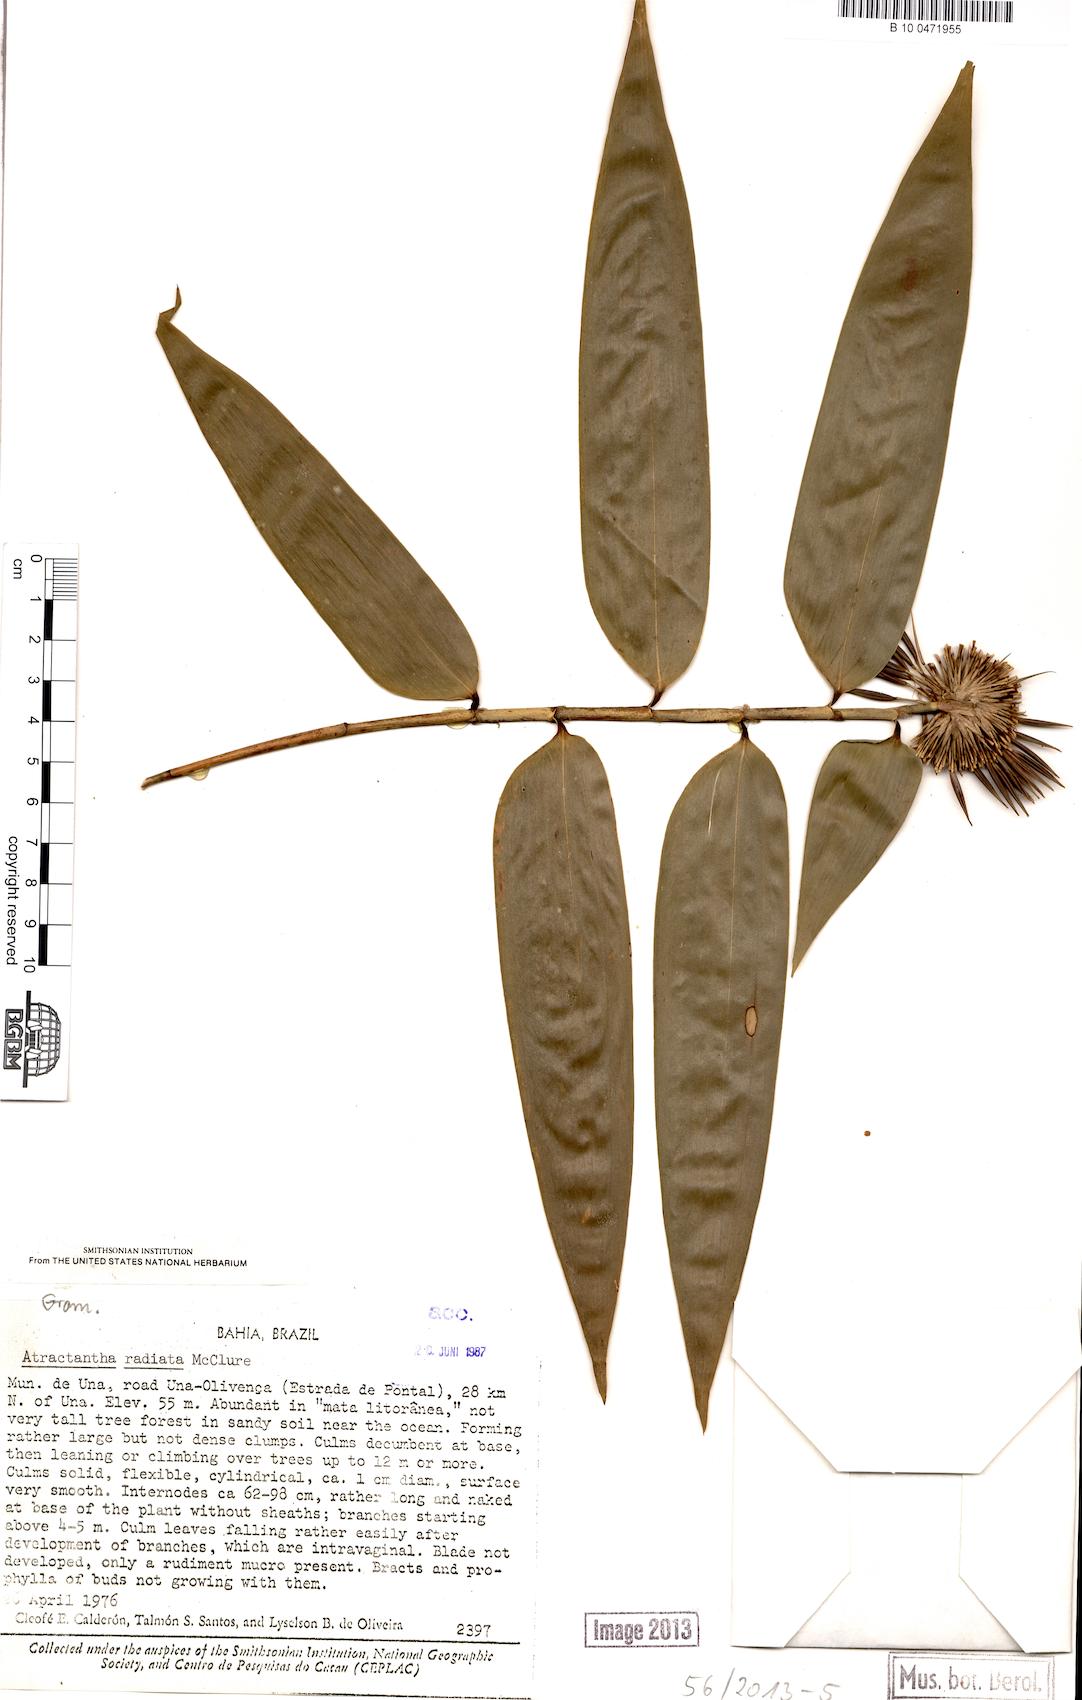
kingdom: Plantae
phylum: Tracheophyta
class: Liliopsida
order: Poales
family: Poaceae
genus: Atractantha
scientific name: Atractantha radiata
